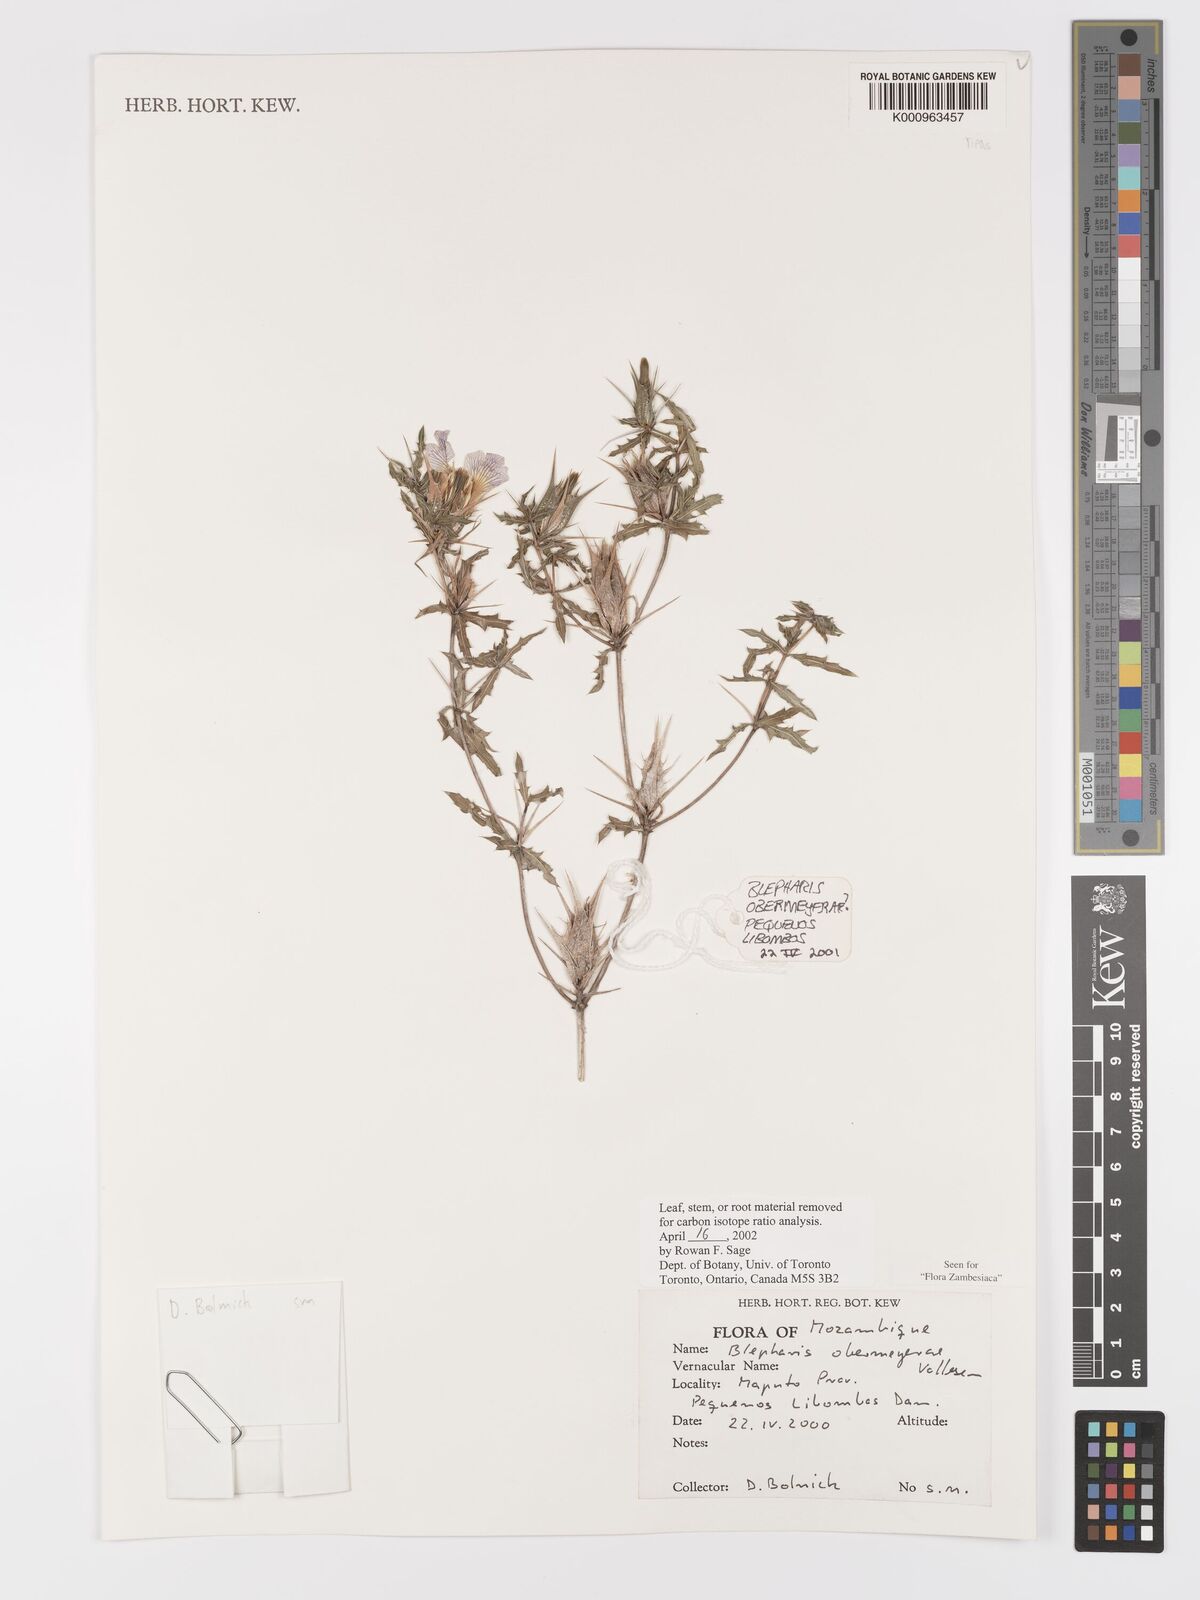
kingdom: Plantae
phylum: Tracheophyta
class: Magnoliopsida
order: Lamiales
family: Acanthaceae
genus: Blepharis
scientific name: Blepharis obermeyerae
